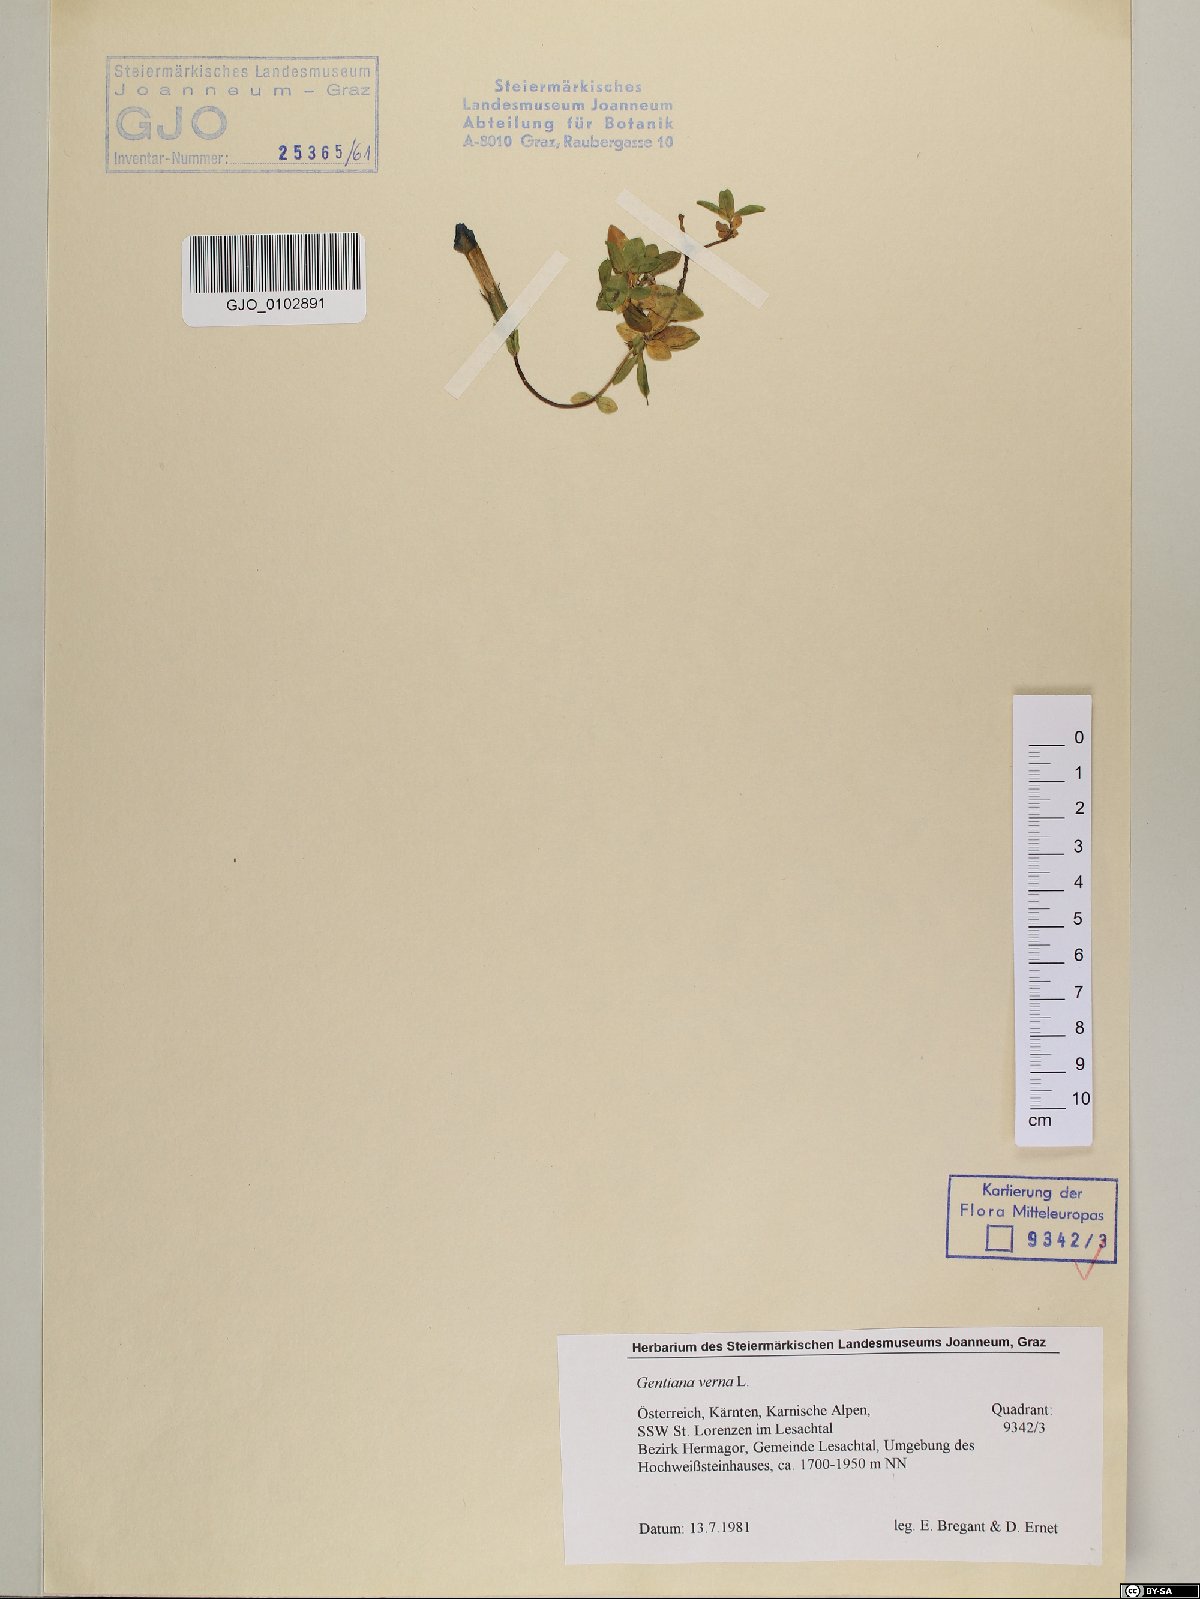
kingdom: Plantae
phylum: Tracheophyta
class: Magnoliopsida
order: Gentianales
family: Gentianaceae
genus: Gentiana
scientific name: Gentiana verna
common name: Spring gentian
